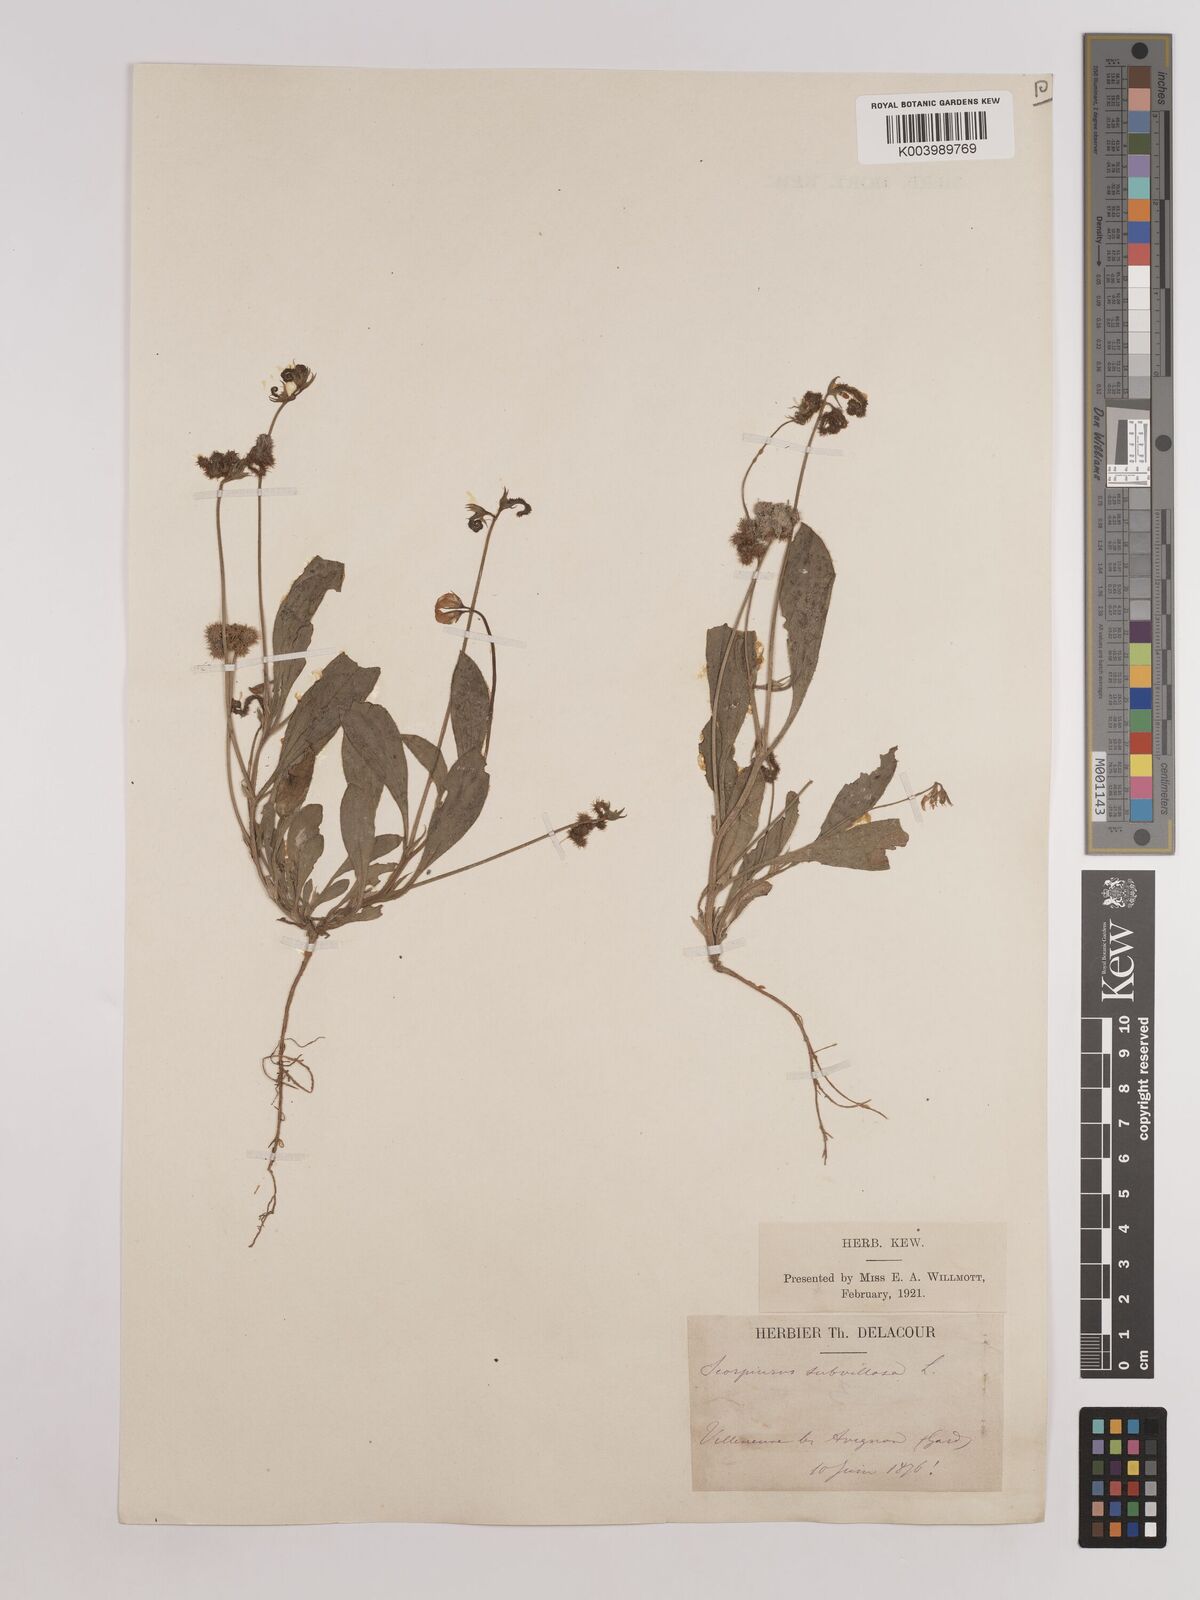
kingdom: Plantae
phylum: Tracheophyta
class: Magnoliopsida
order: Fabales
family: Fabaceae
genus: Scorpiurus
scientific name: Scorpiurus muricatus
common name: Caterpillar-plant
